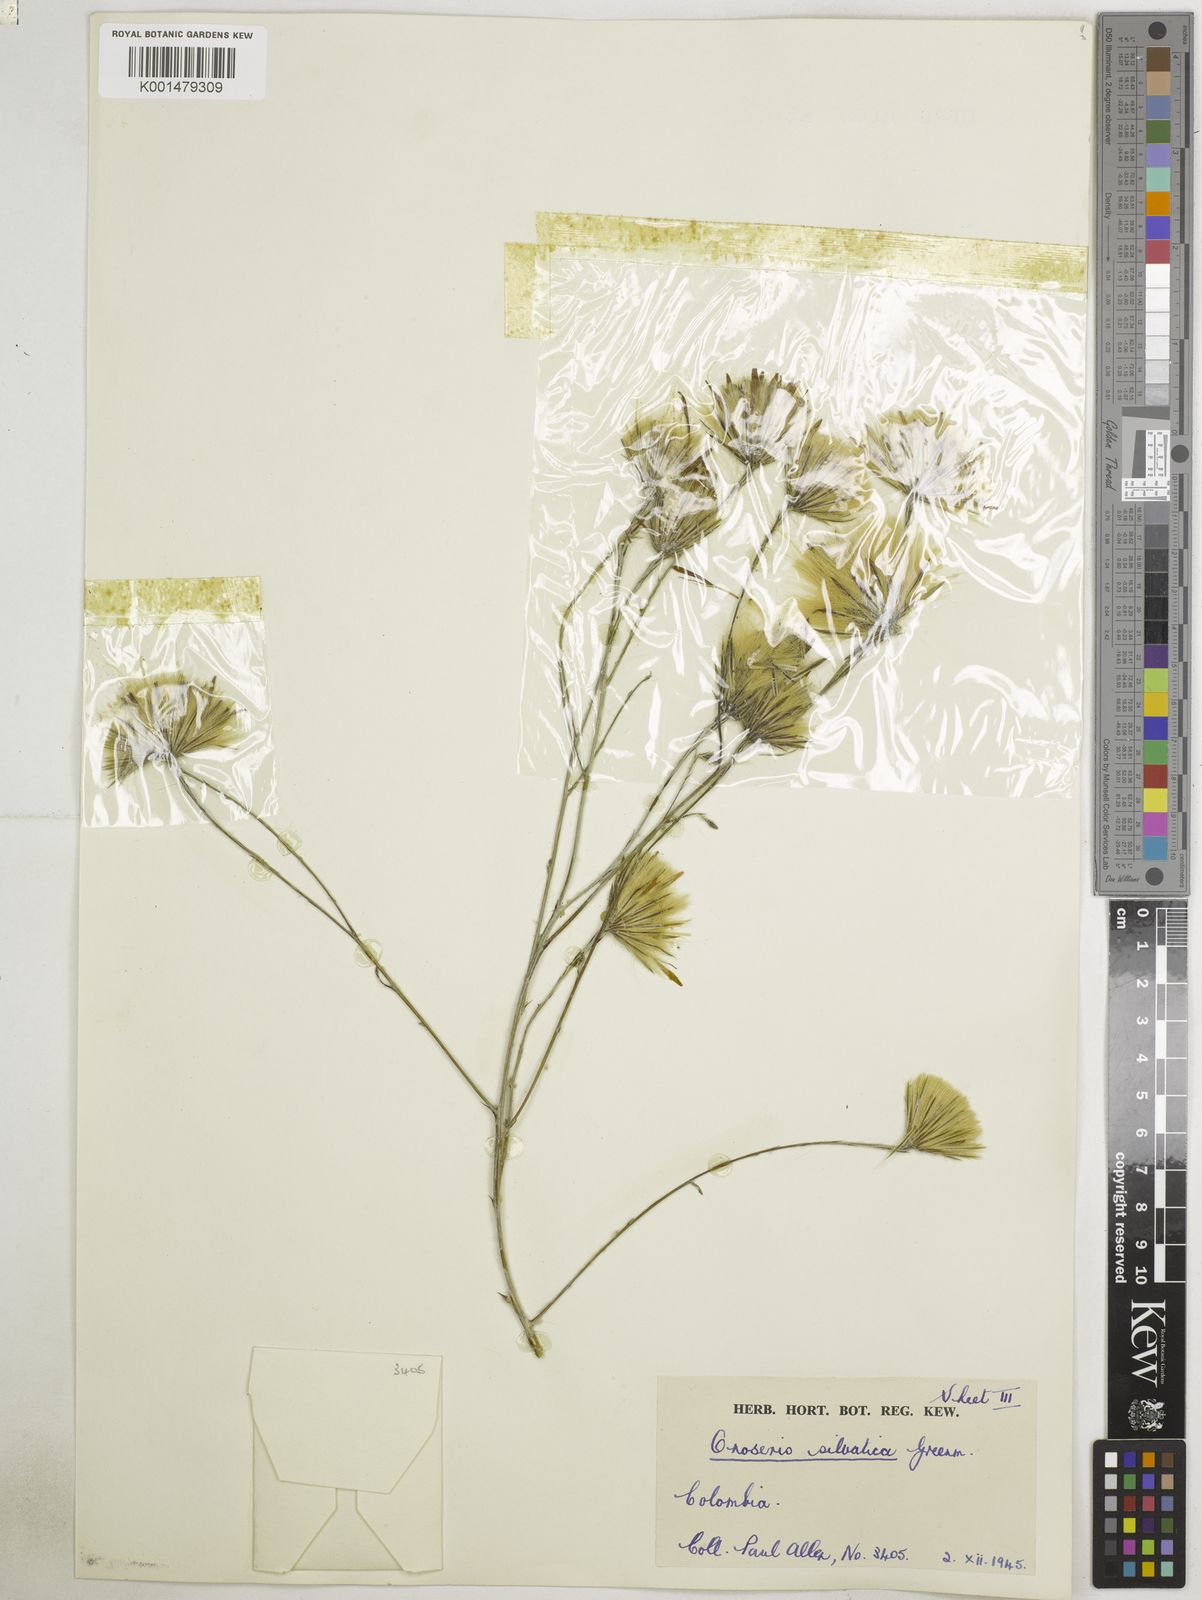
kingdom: Plantae
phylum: Tracheophyta
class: Magnoliopsida
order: Asterales
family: Asteraceae
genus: Onoseris
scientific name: Onoseris silvatica
